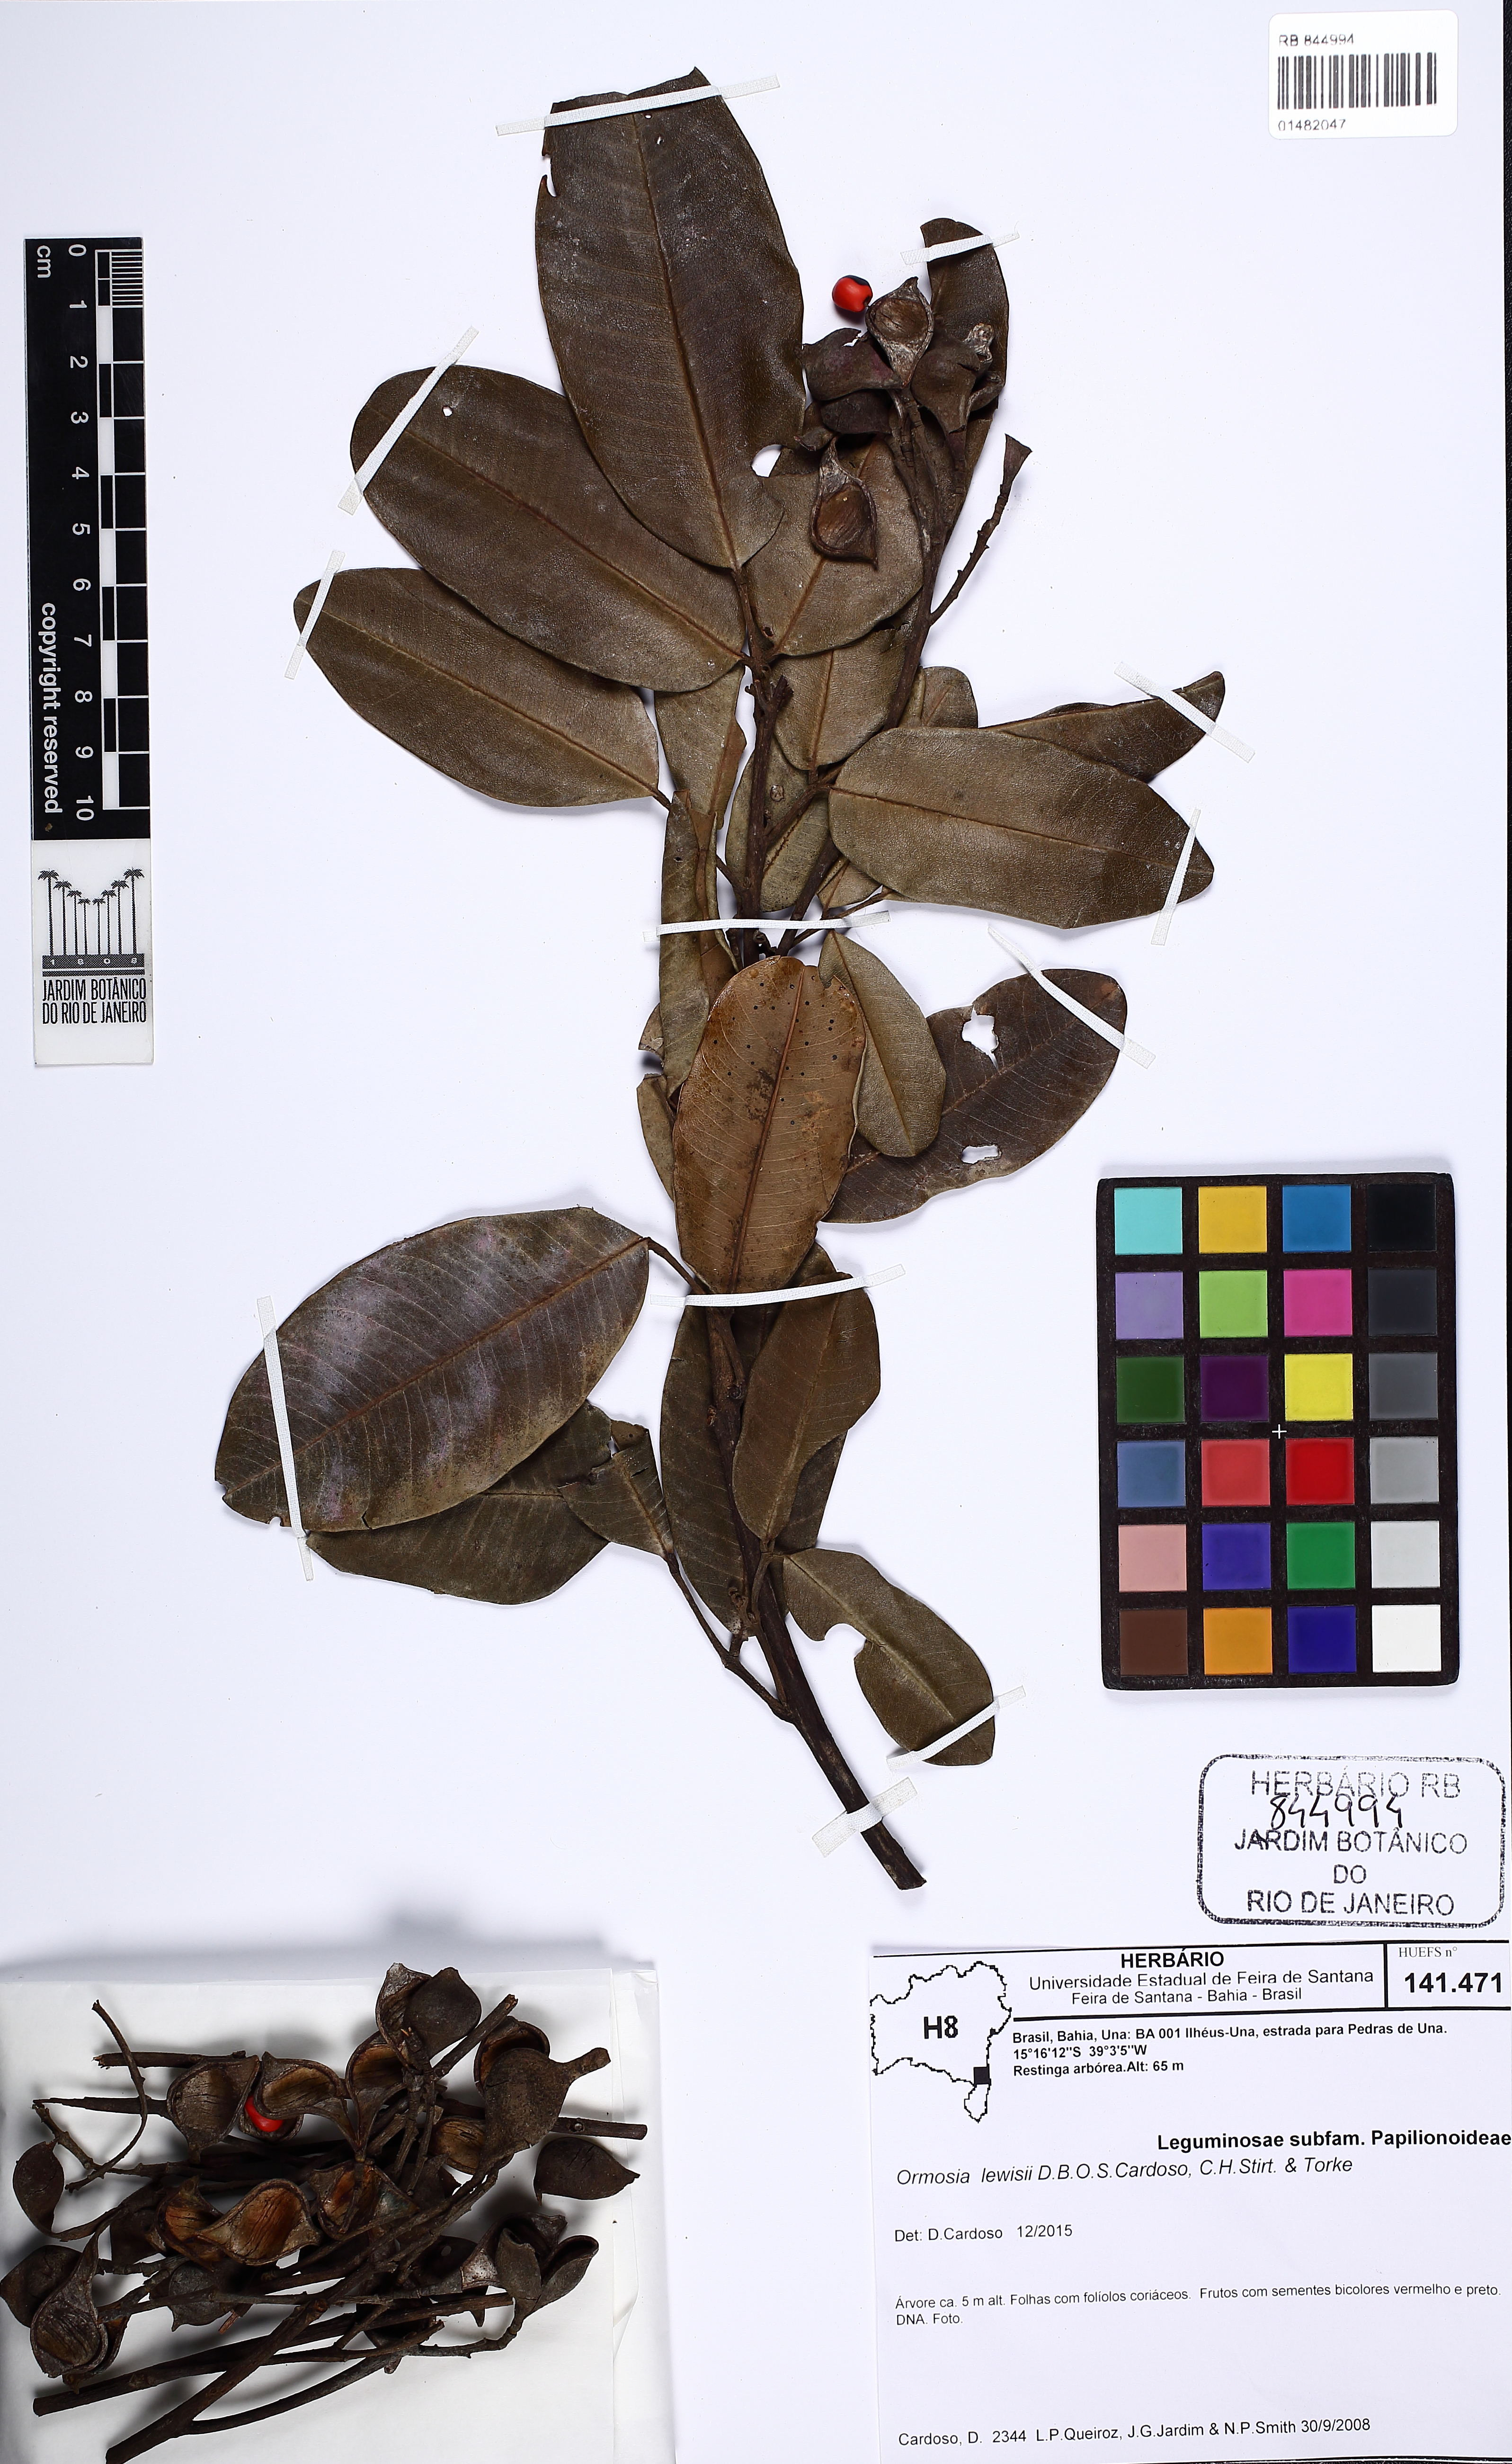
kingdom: Plantae
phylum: Tracheophyta
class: Magnoliopsida
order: Fabales
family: Fabaceae
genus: Ormosia
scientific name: Ormosia lewisii
